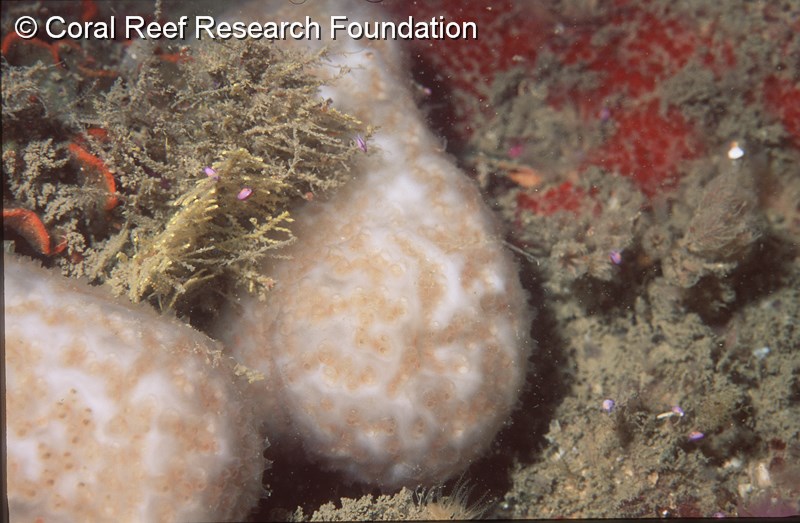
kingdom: Animalia
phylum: Chordata
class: Ascidiacea
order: Aplousobranchia
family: Pseudodistomidae
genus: Pseudodistoma
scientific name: Pseudodistoma
